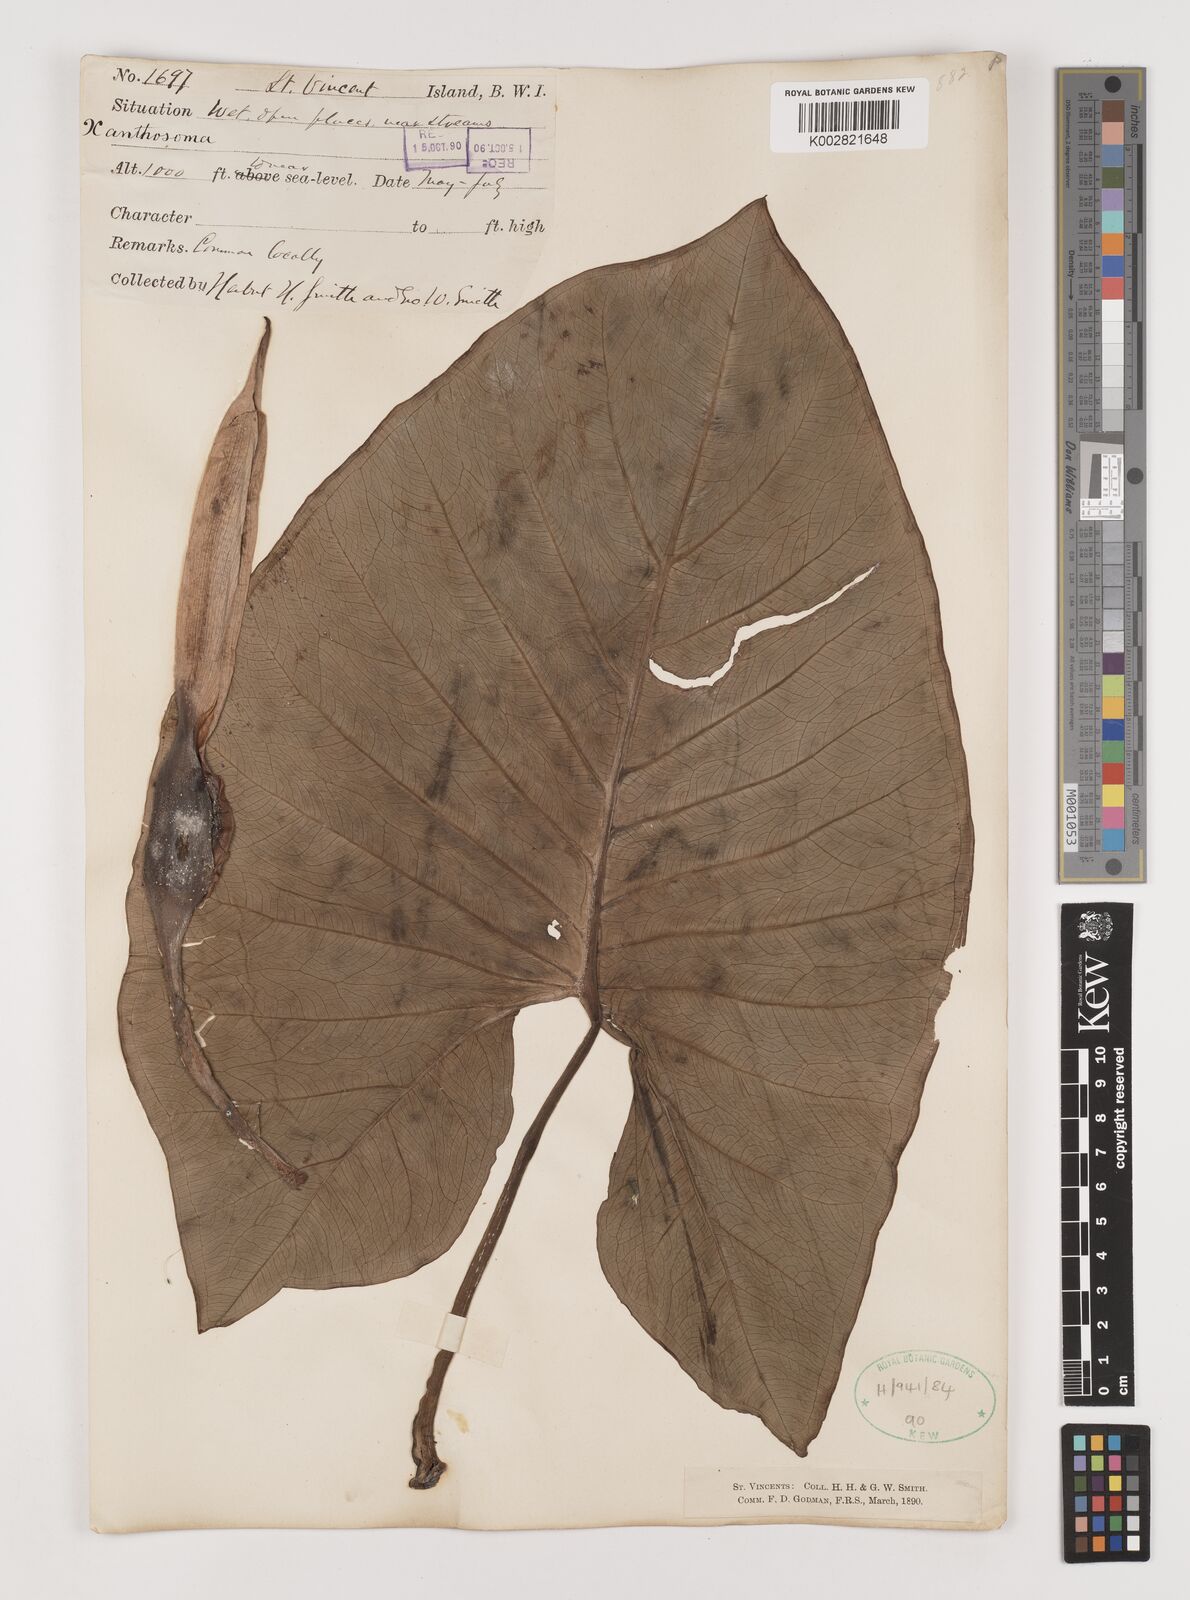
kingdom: Plantae
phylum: Tracheophyta
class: Liliopsida
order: Alismatales
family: Araceae
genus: Xanthosoma
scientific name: Xanthosoma
